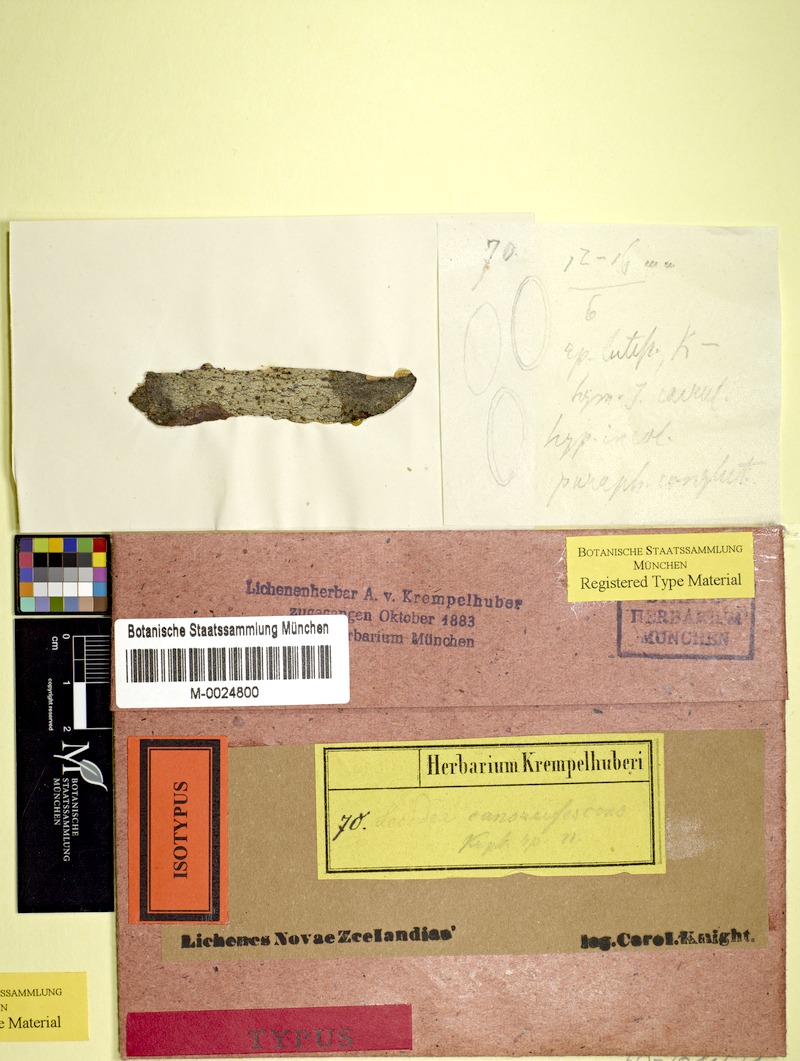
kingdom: Fungi
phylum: Ascomycota
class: Lecanoromycetes
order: Lecanorales
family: Malmideaceae
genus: Australidea
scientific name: Australidea canorufescens
